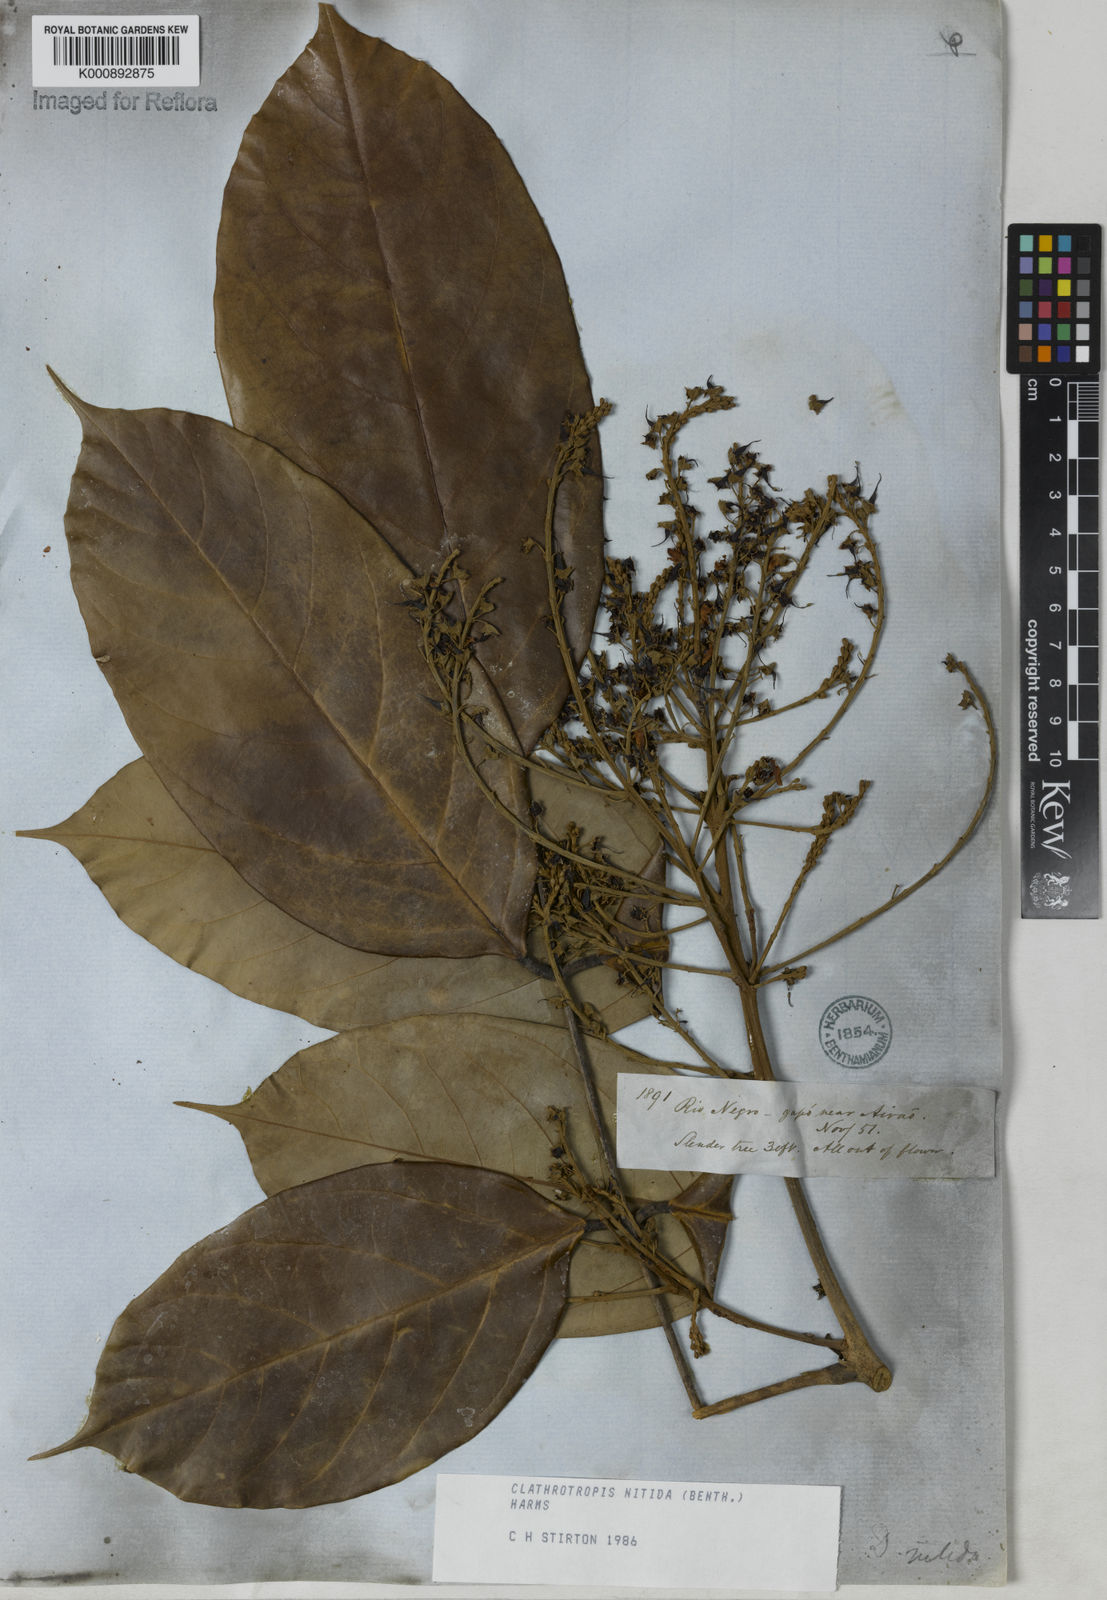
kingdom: Plantae
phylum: Tracheophyta
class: Magnoliopsida
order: Fabales
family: Fabaceae
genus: Clathrotropis
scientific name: Clathrotropis nitida
